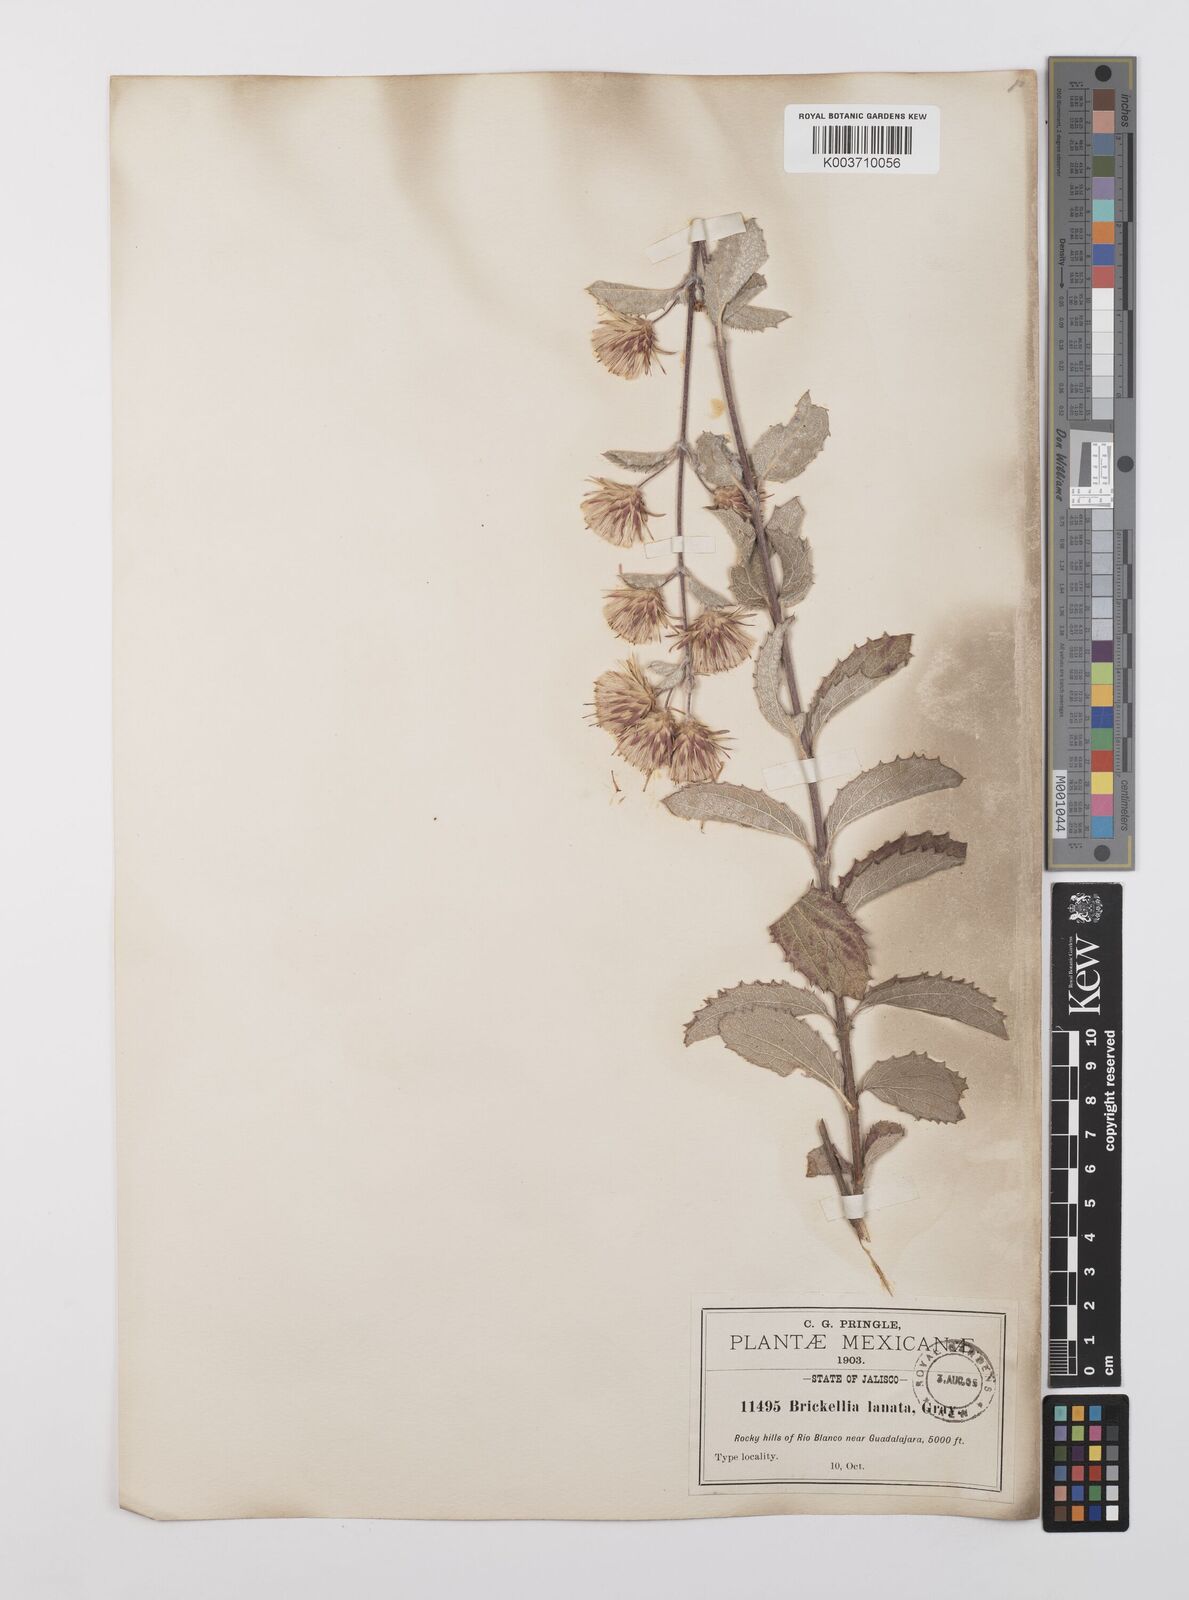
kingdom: Plantae
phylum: Tracheophyta
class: Magnoliopsida
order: Asterales
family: Asteraceae
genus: Brickellia
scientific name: Brickellia lanata
